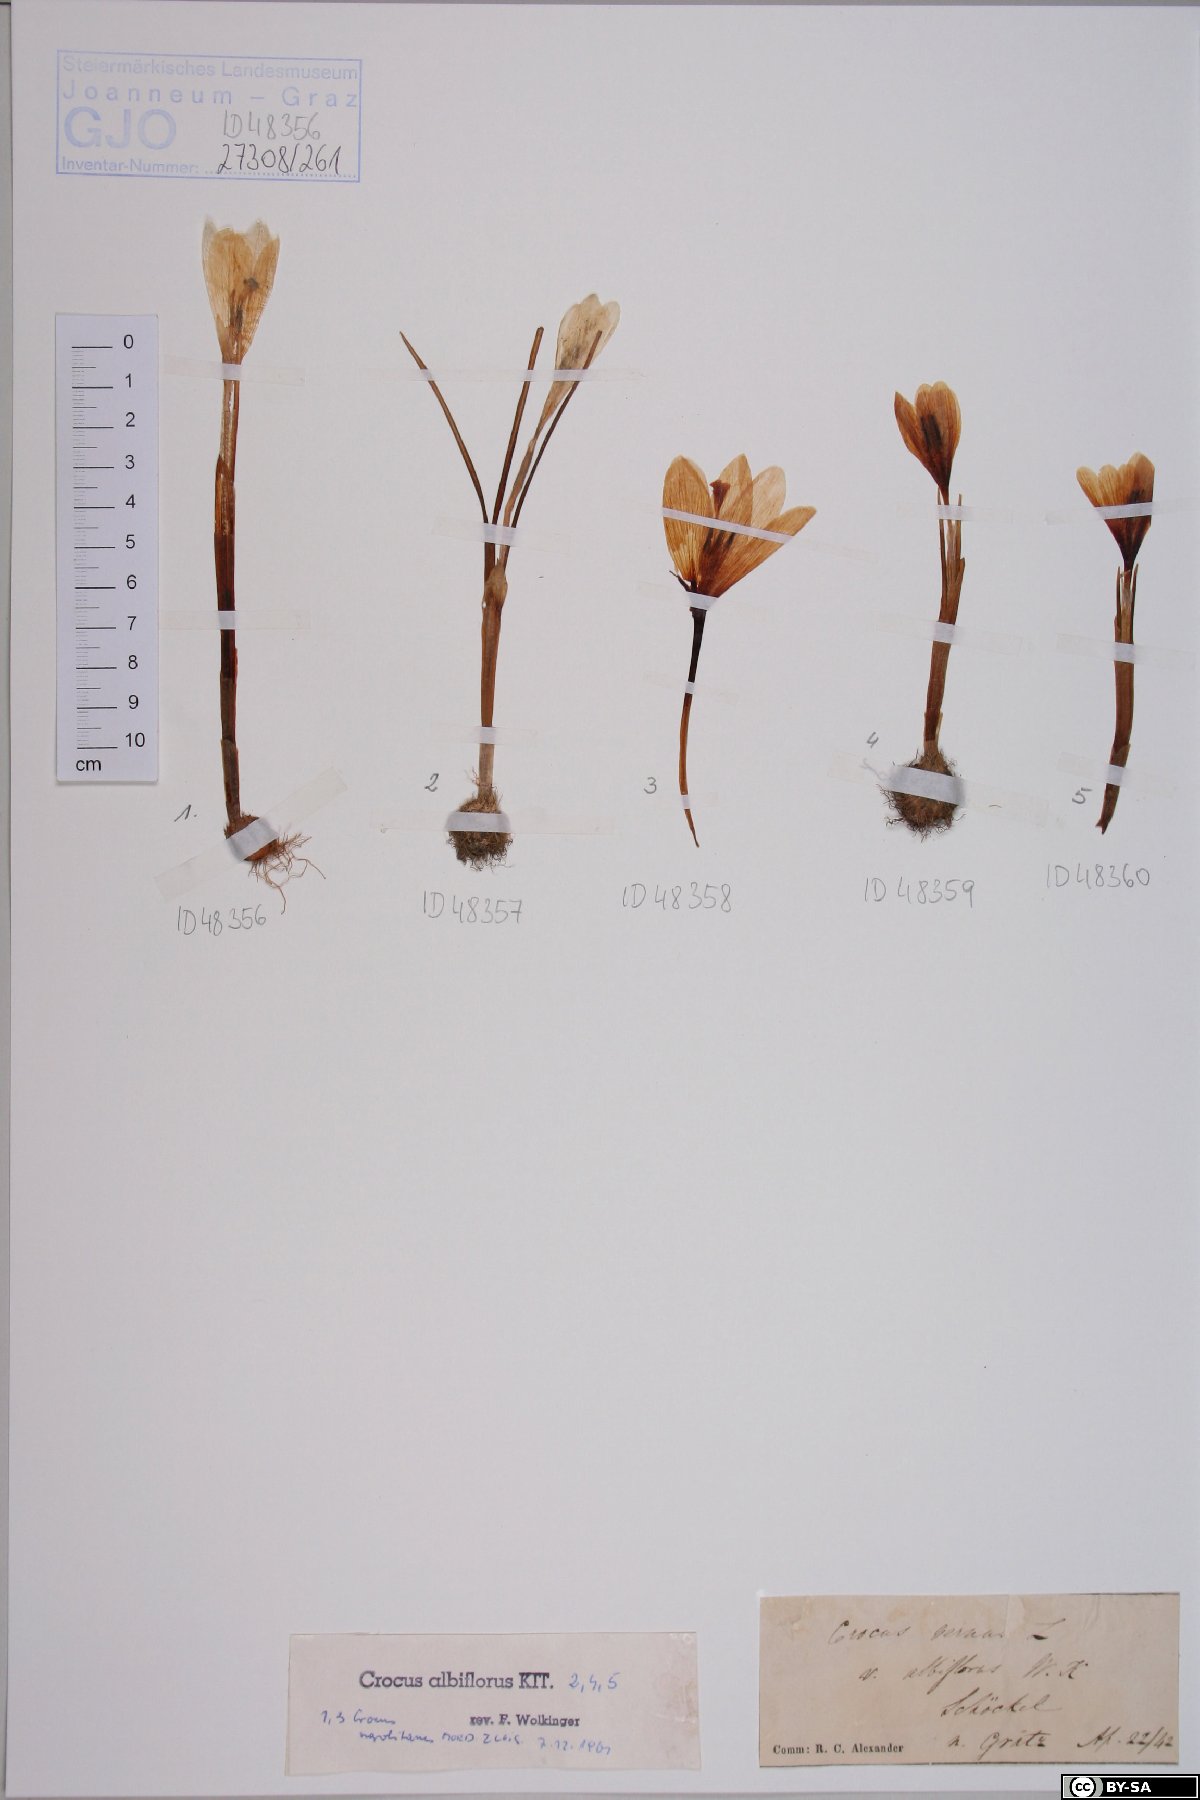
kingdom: Plantae
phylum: Tracheophyta
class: Liliopsida
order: Asparagales
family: Iridaceae
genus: Crocus
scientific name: Crocus vernus
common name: Spring crocus
